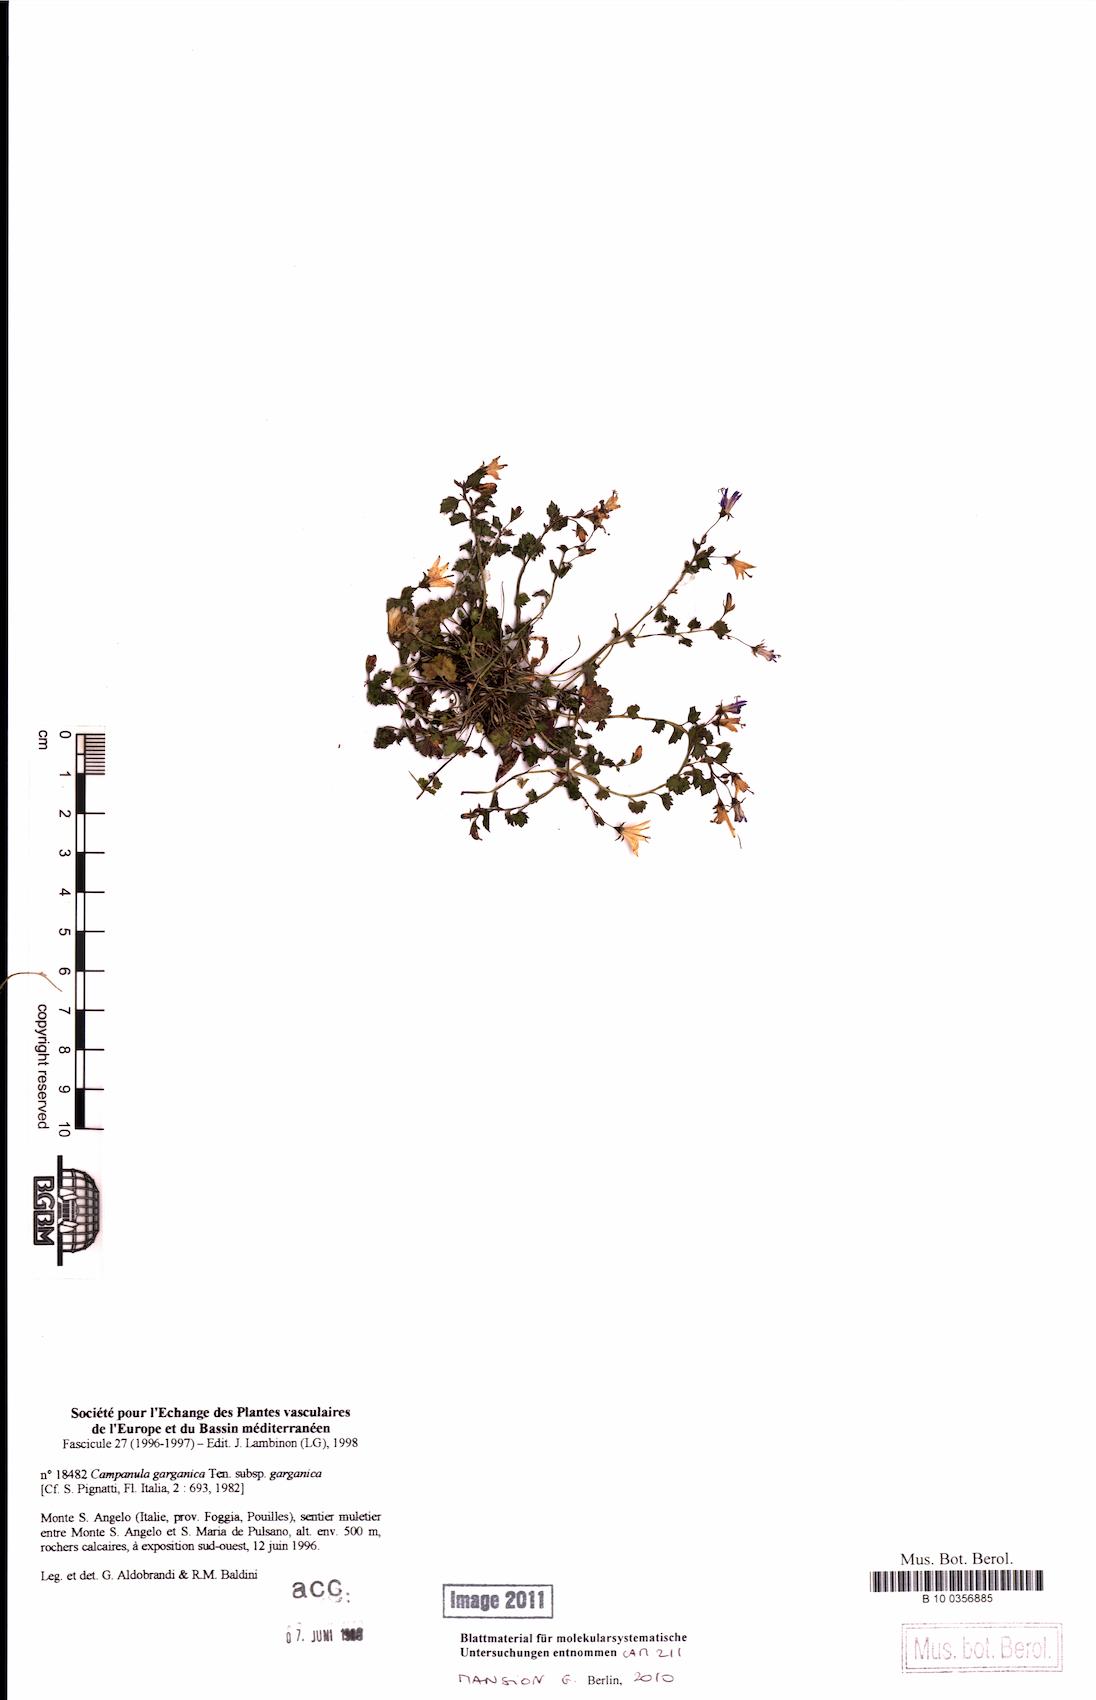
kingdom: Plantae
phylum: Tracheophyta
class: Magnoliopsida
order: Asterales
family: Campanulaceae
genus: Campanula
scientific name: Campanula garganica
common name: Adriatic bellflower
